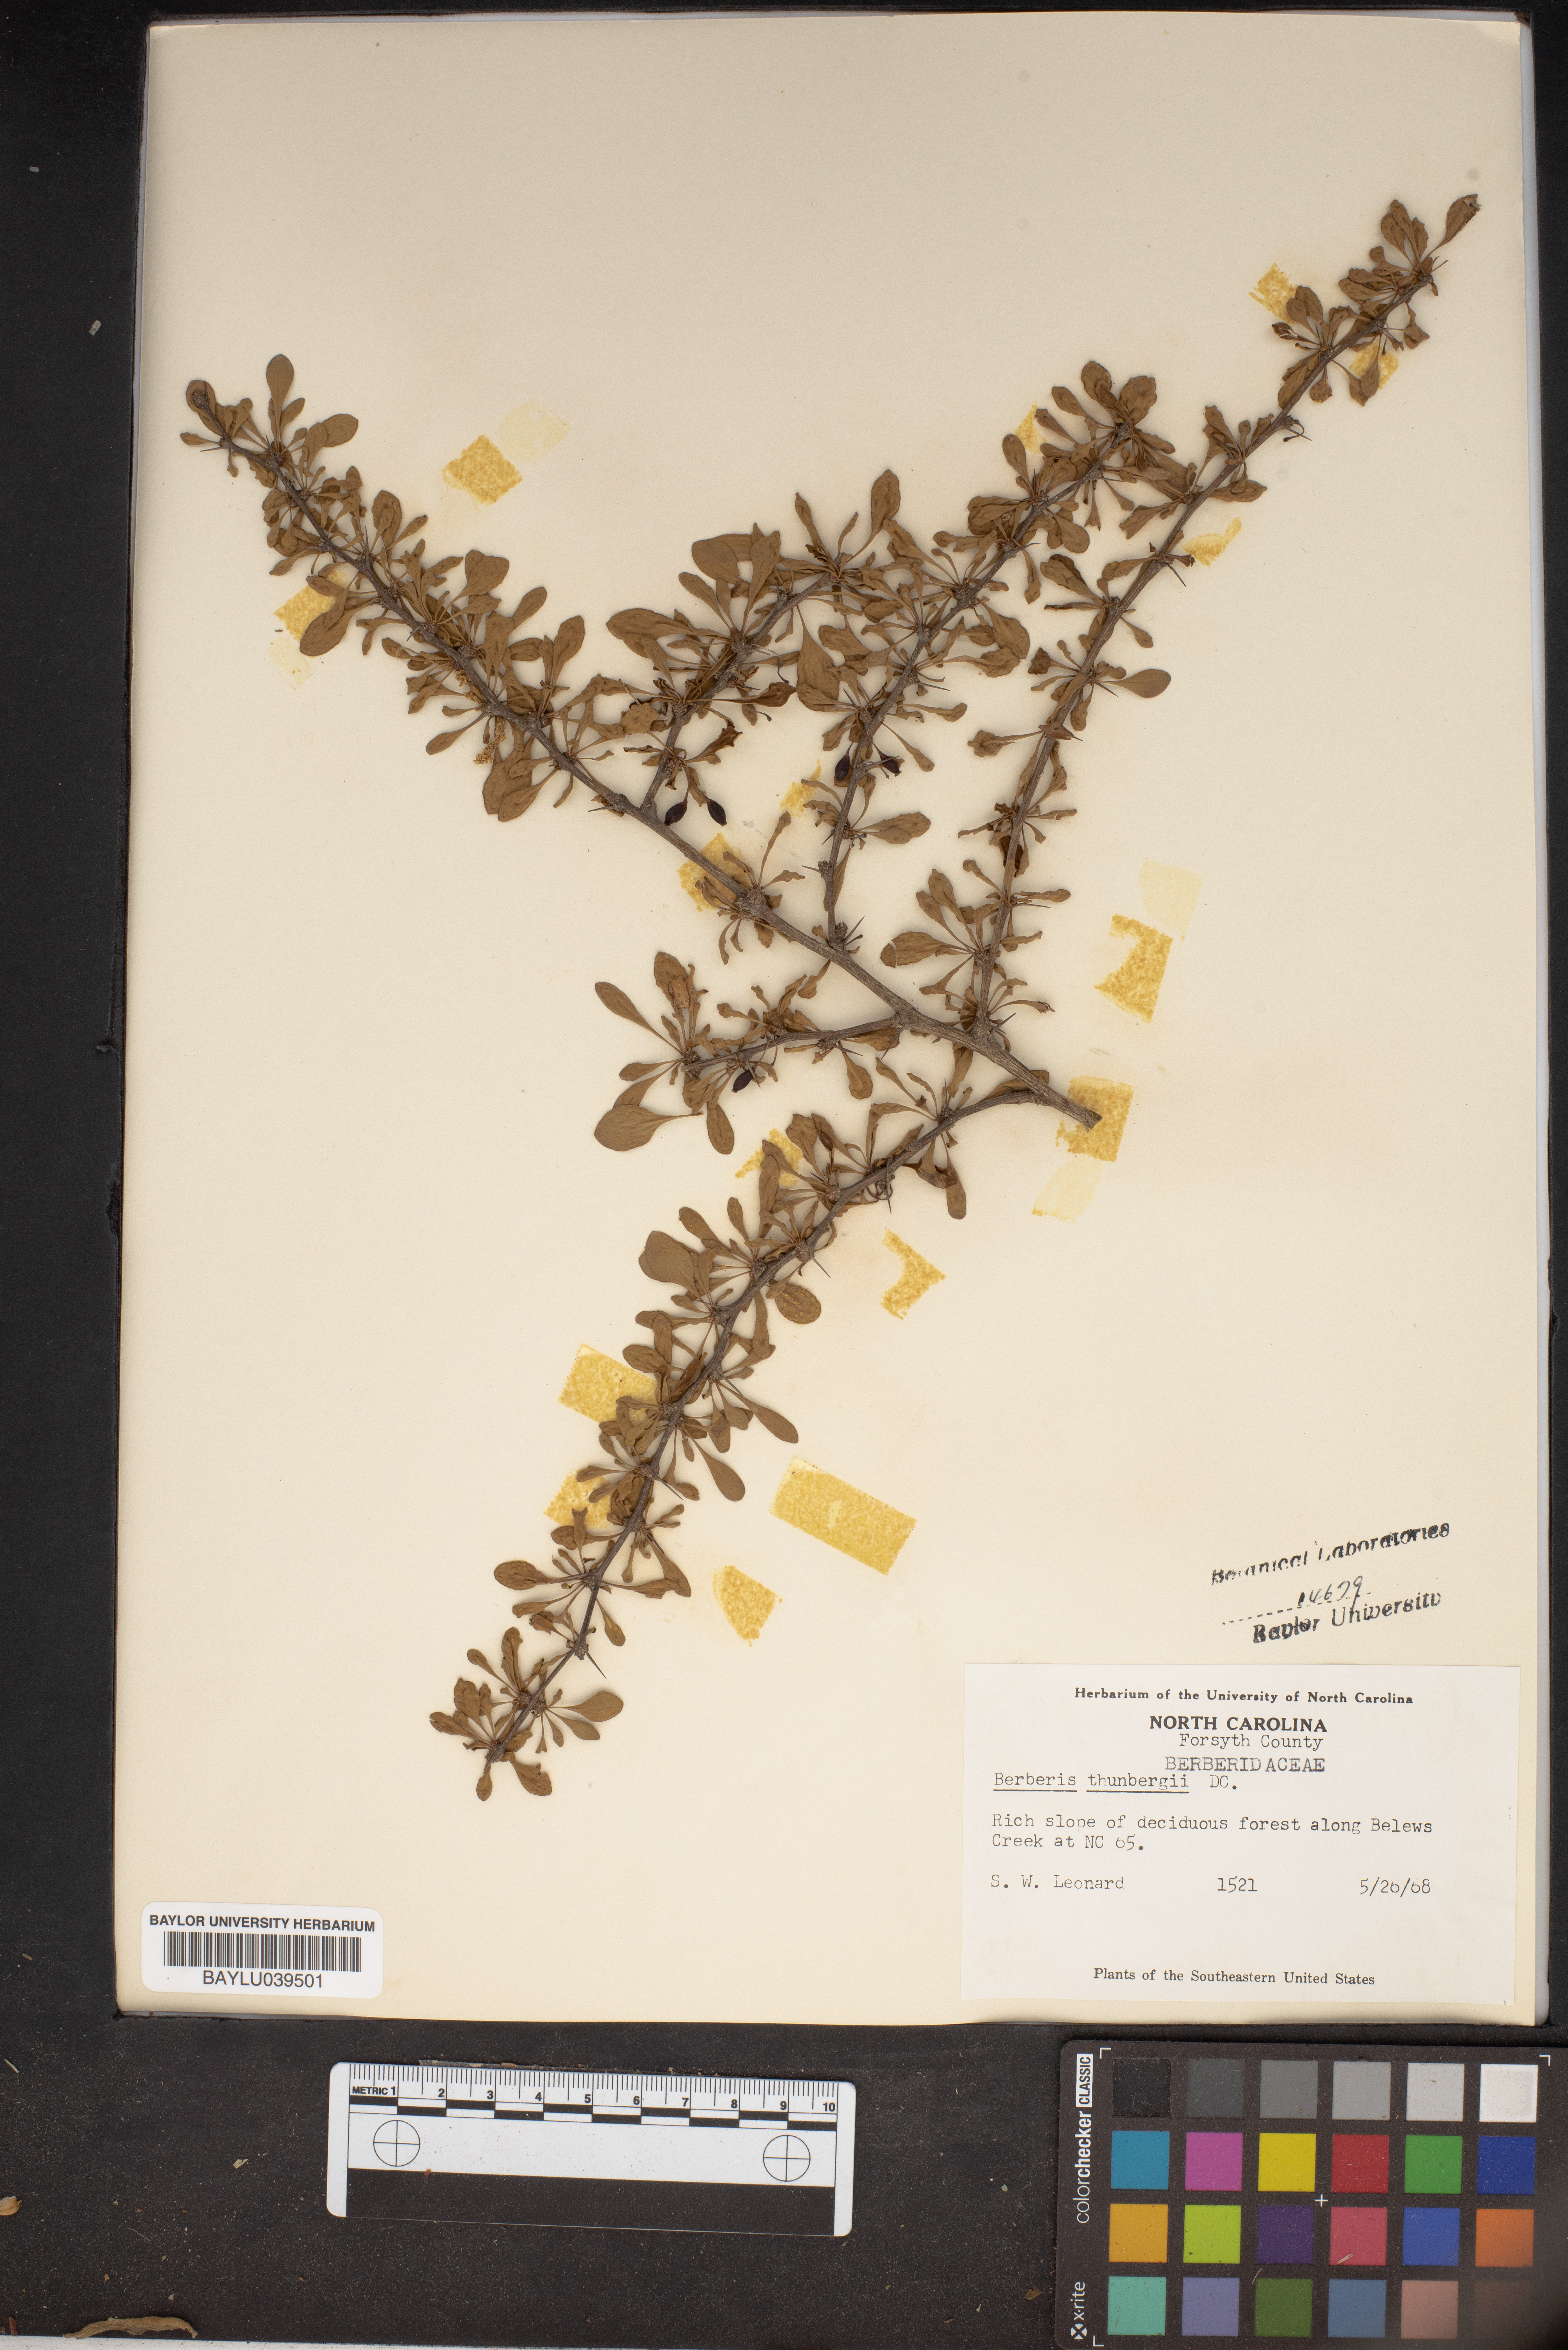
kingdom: Plantae
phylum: Tracheophyta
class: Magnoliopsida
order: Ranunculales
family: Berberidaceae
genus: Berberis
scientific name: Berberis thunbergii
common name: Japanese barberry
